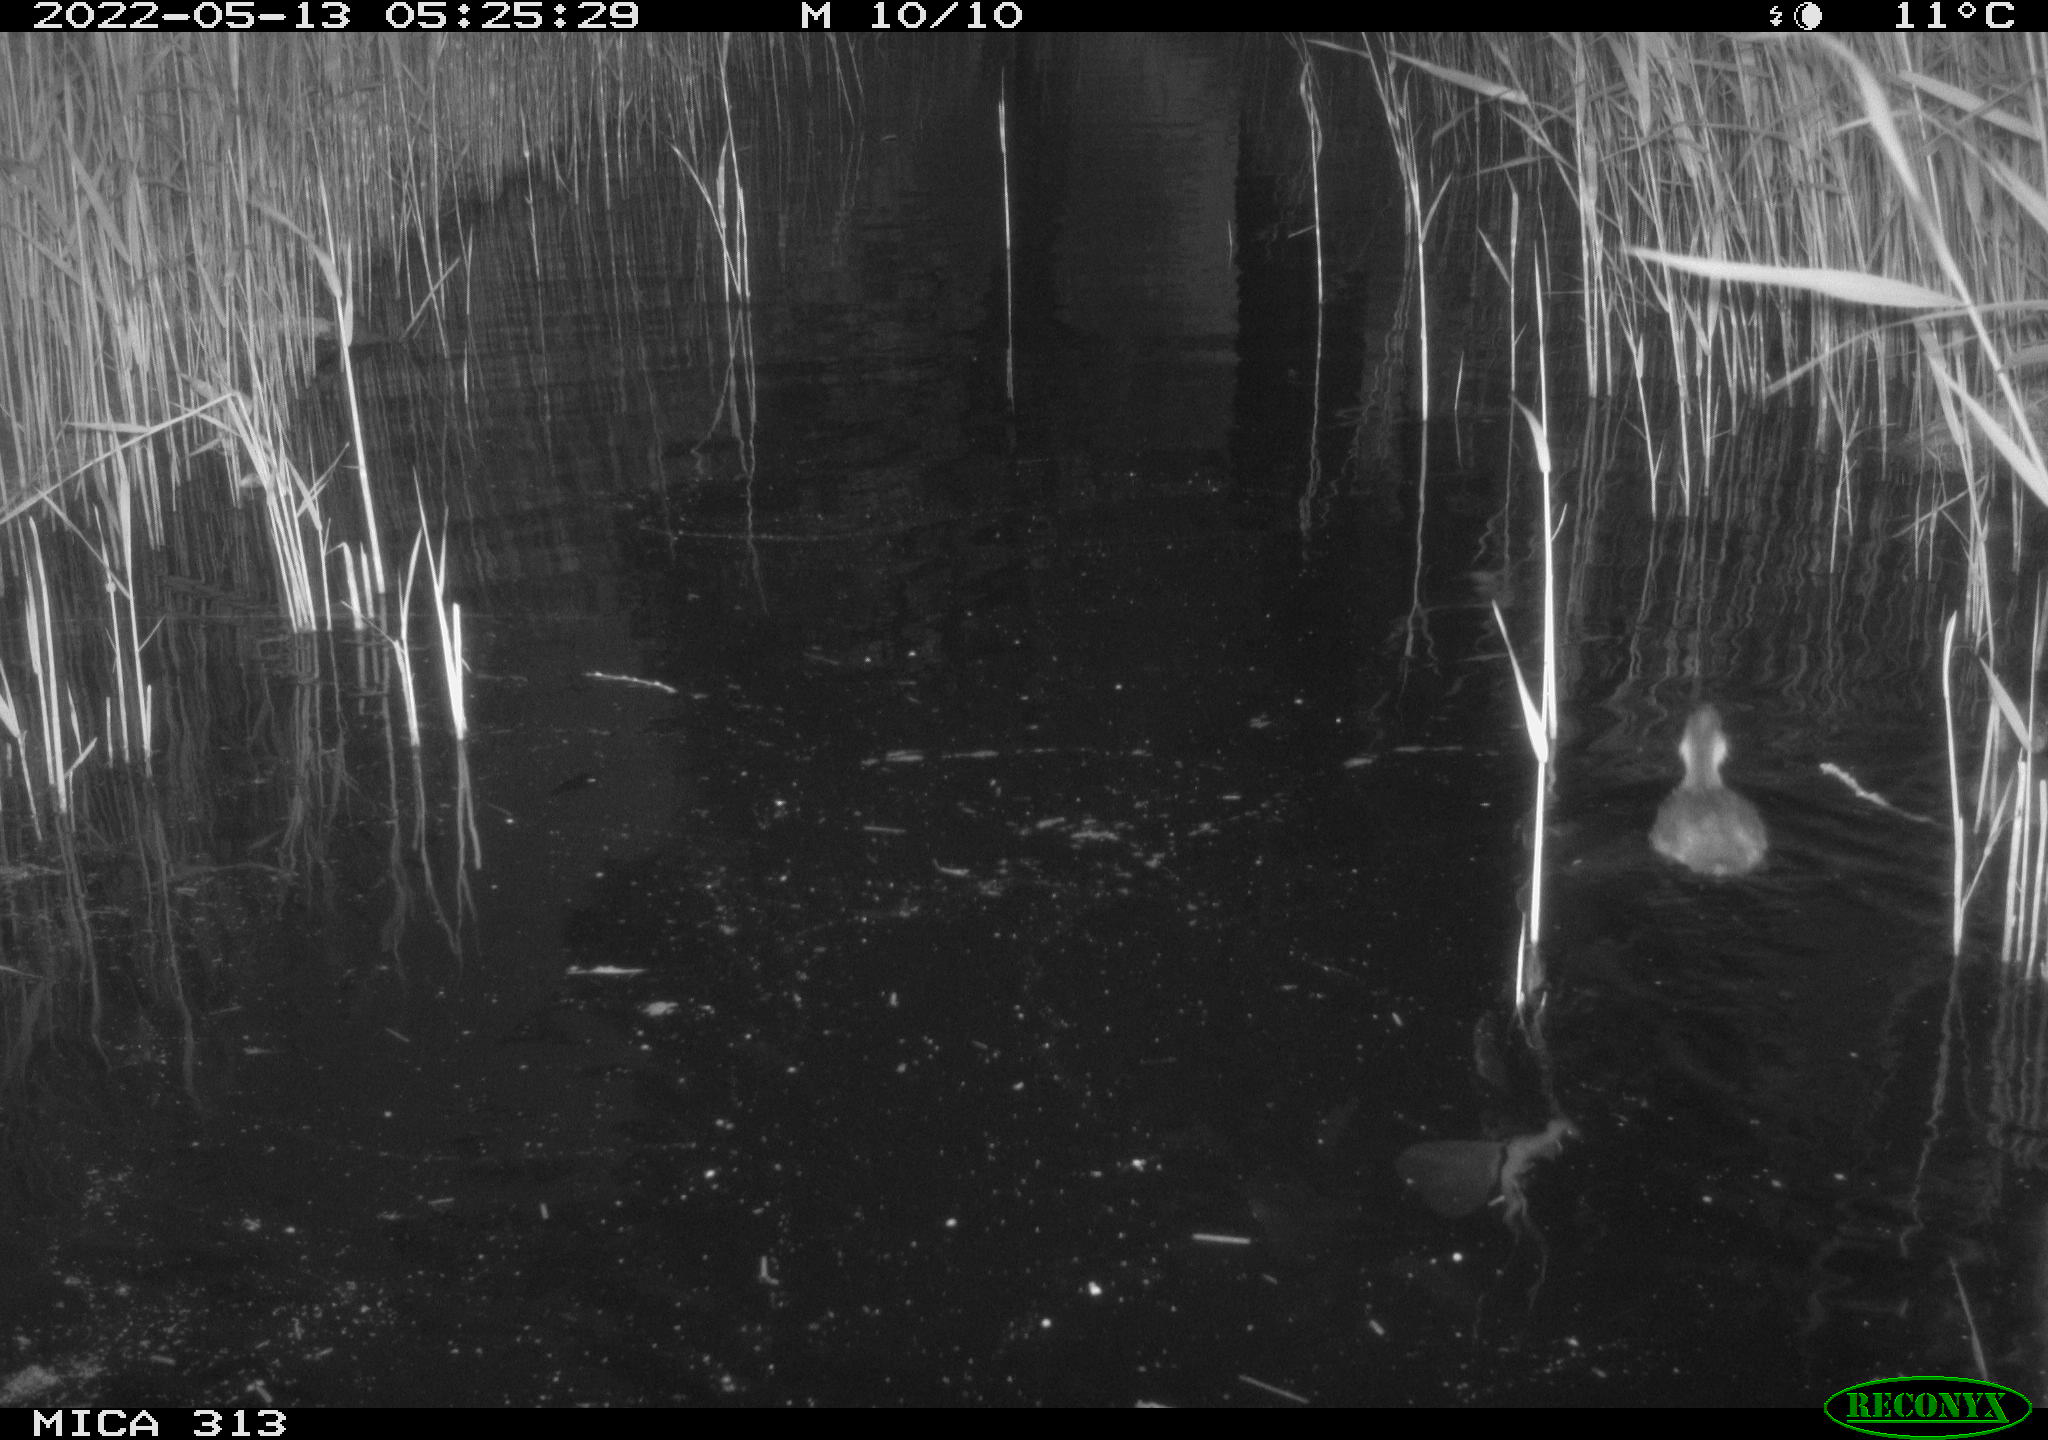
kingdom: Animalia
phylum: Chordata
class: Aves
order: Anseriformes
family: Anatidae
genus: Anas
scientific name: Anas platyrhynchos
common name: Mallard
